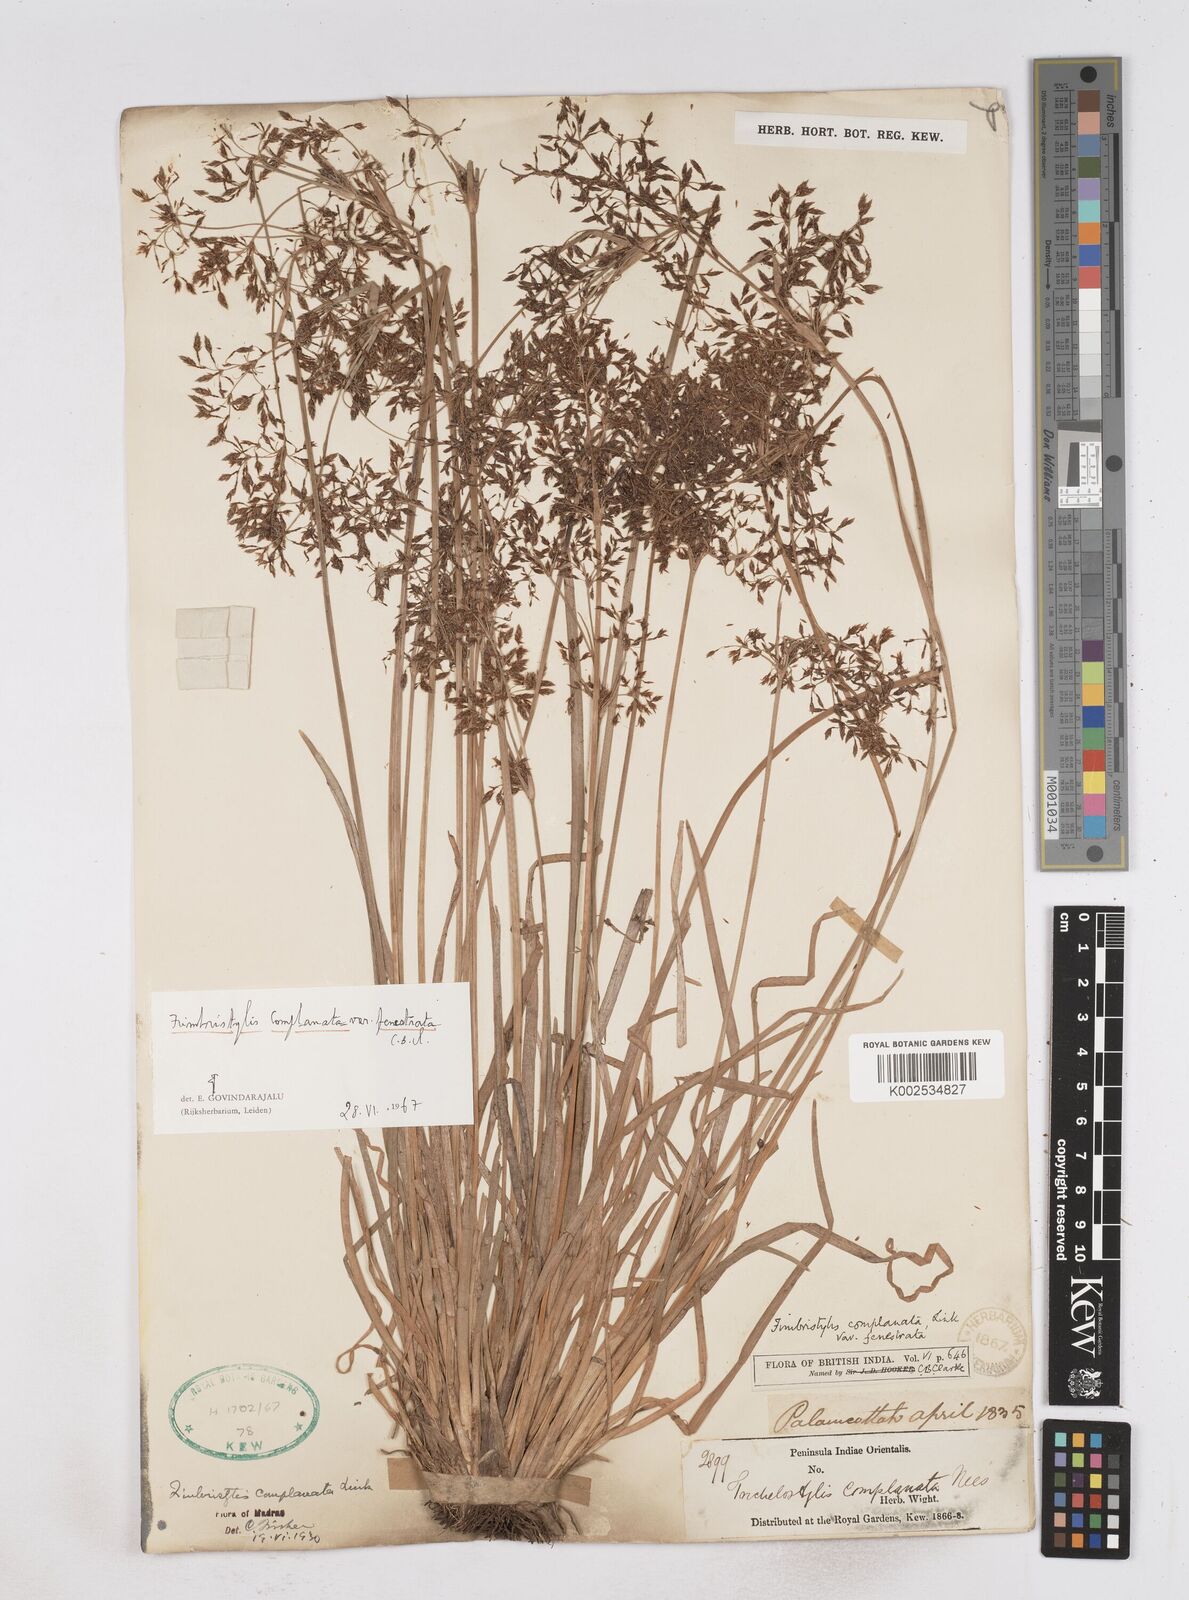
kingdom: Plantae
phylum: Tracheophyta
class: Liliopsida
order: Poales
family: Cyperaceae
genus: Fimbristylis
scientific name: Fimbristylis complanata
